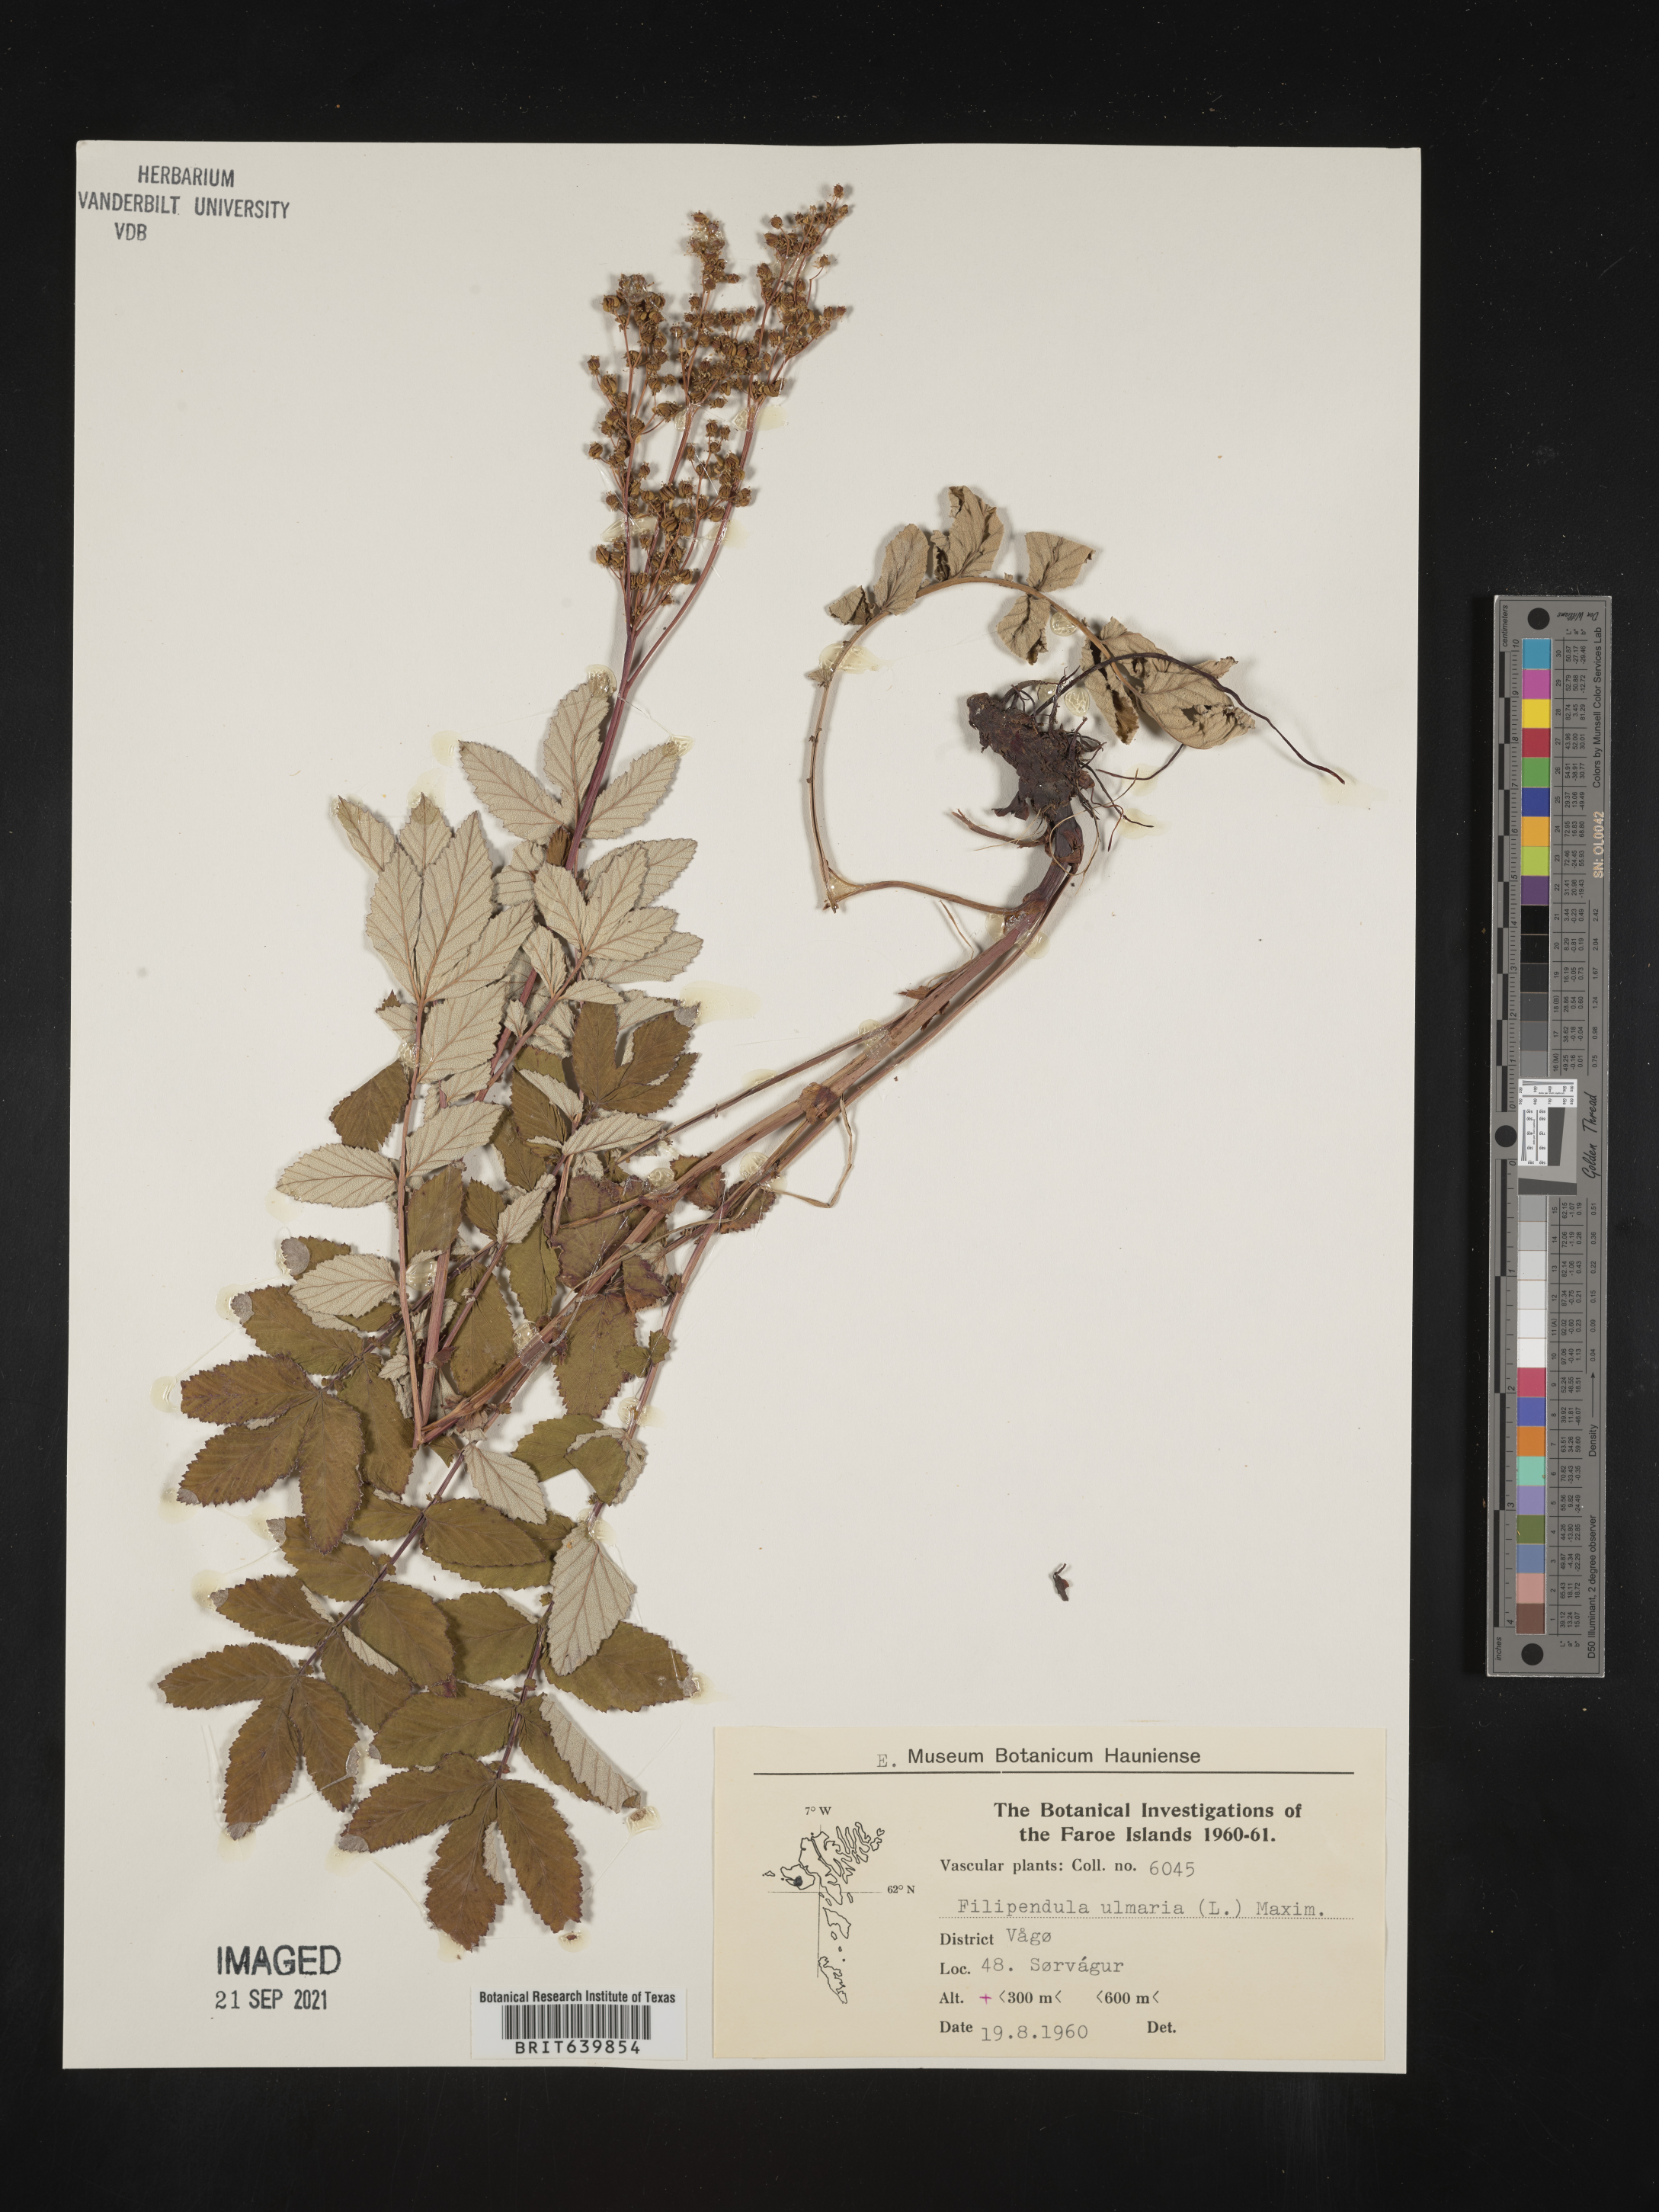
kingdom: Plantae
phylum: Tracheophyta
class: Magnoliopsida
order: Rosales
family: Rosaceae
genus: Filipendula
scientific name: Filipendula
